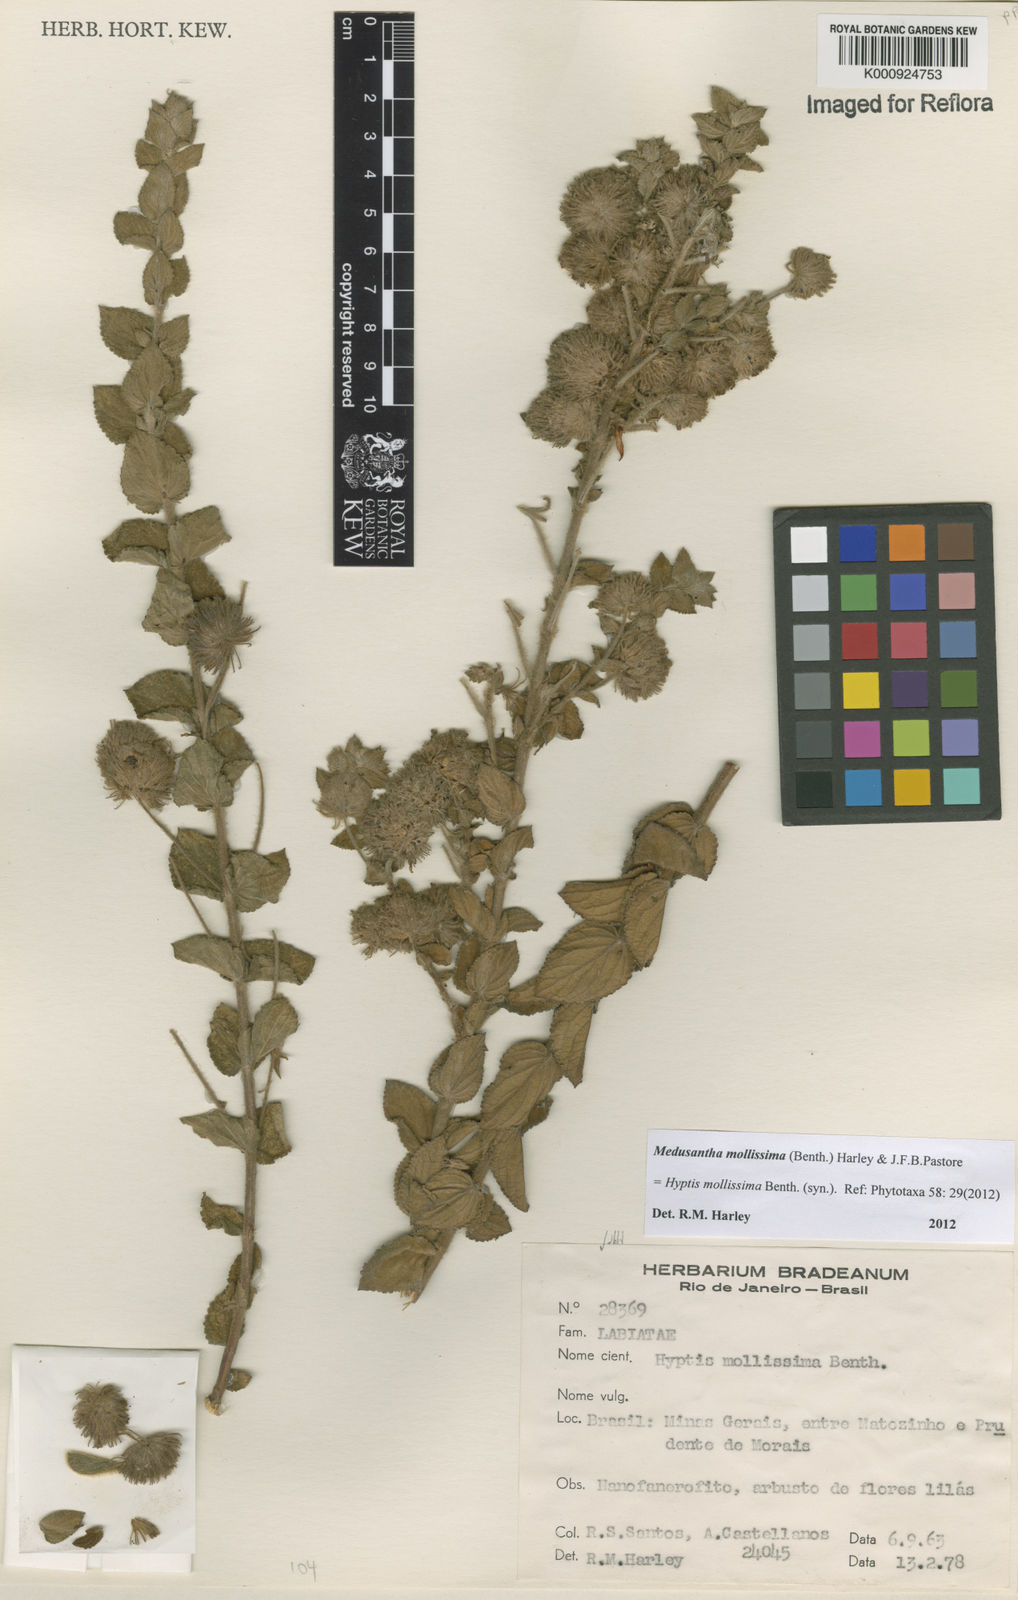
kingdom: Plantae
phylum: Tracheophyta
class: Magnoliopsida
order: Lamiales
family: Lamiaceae
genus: Medusantha
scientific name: Medusantha mollissima
